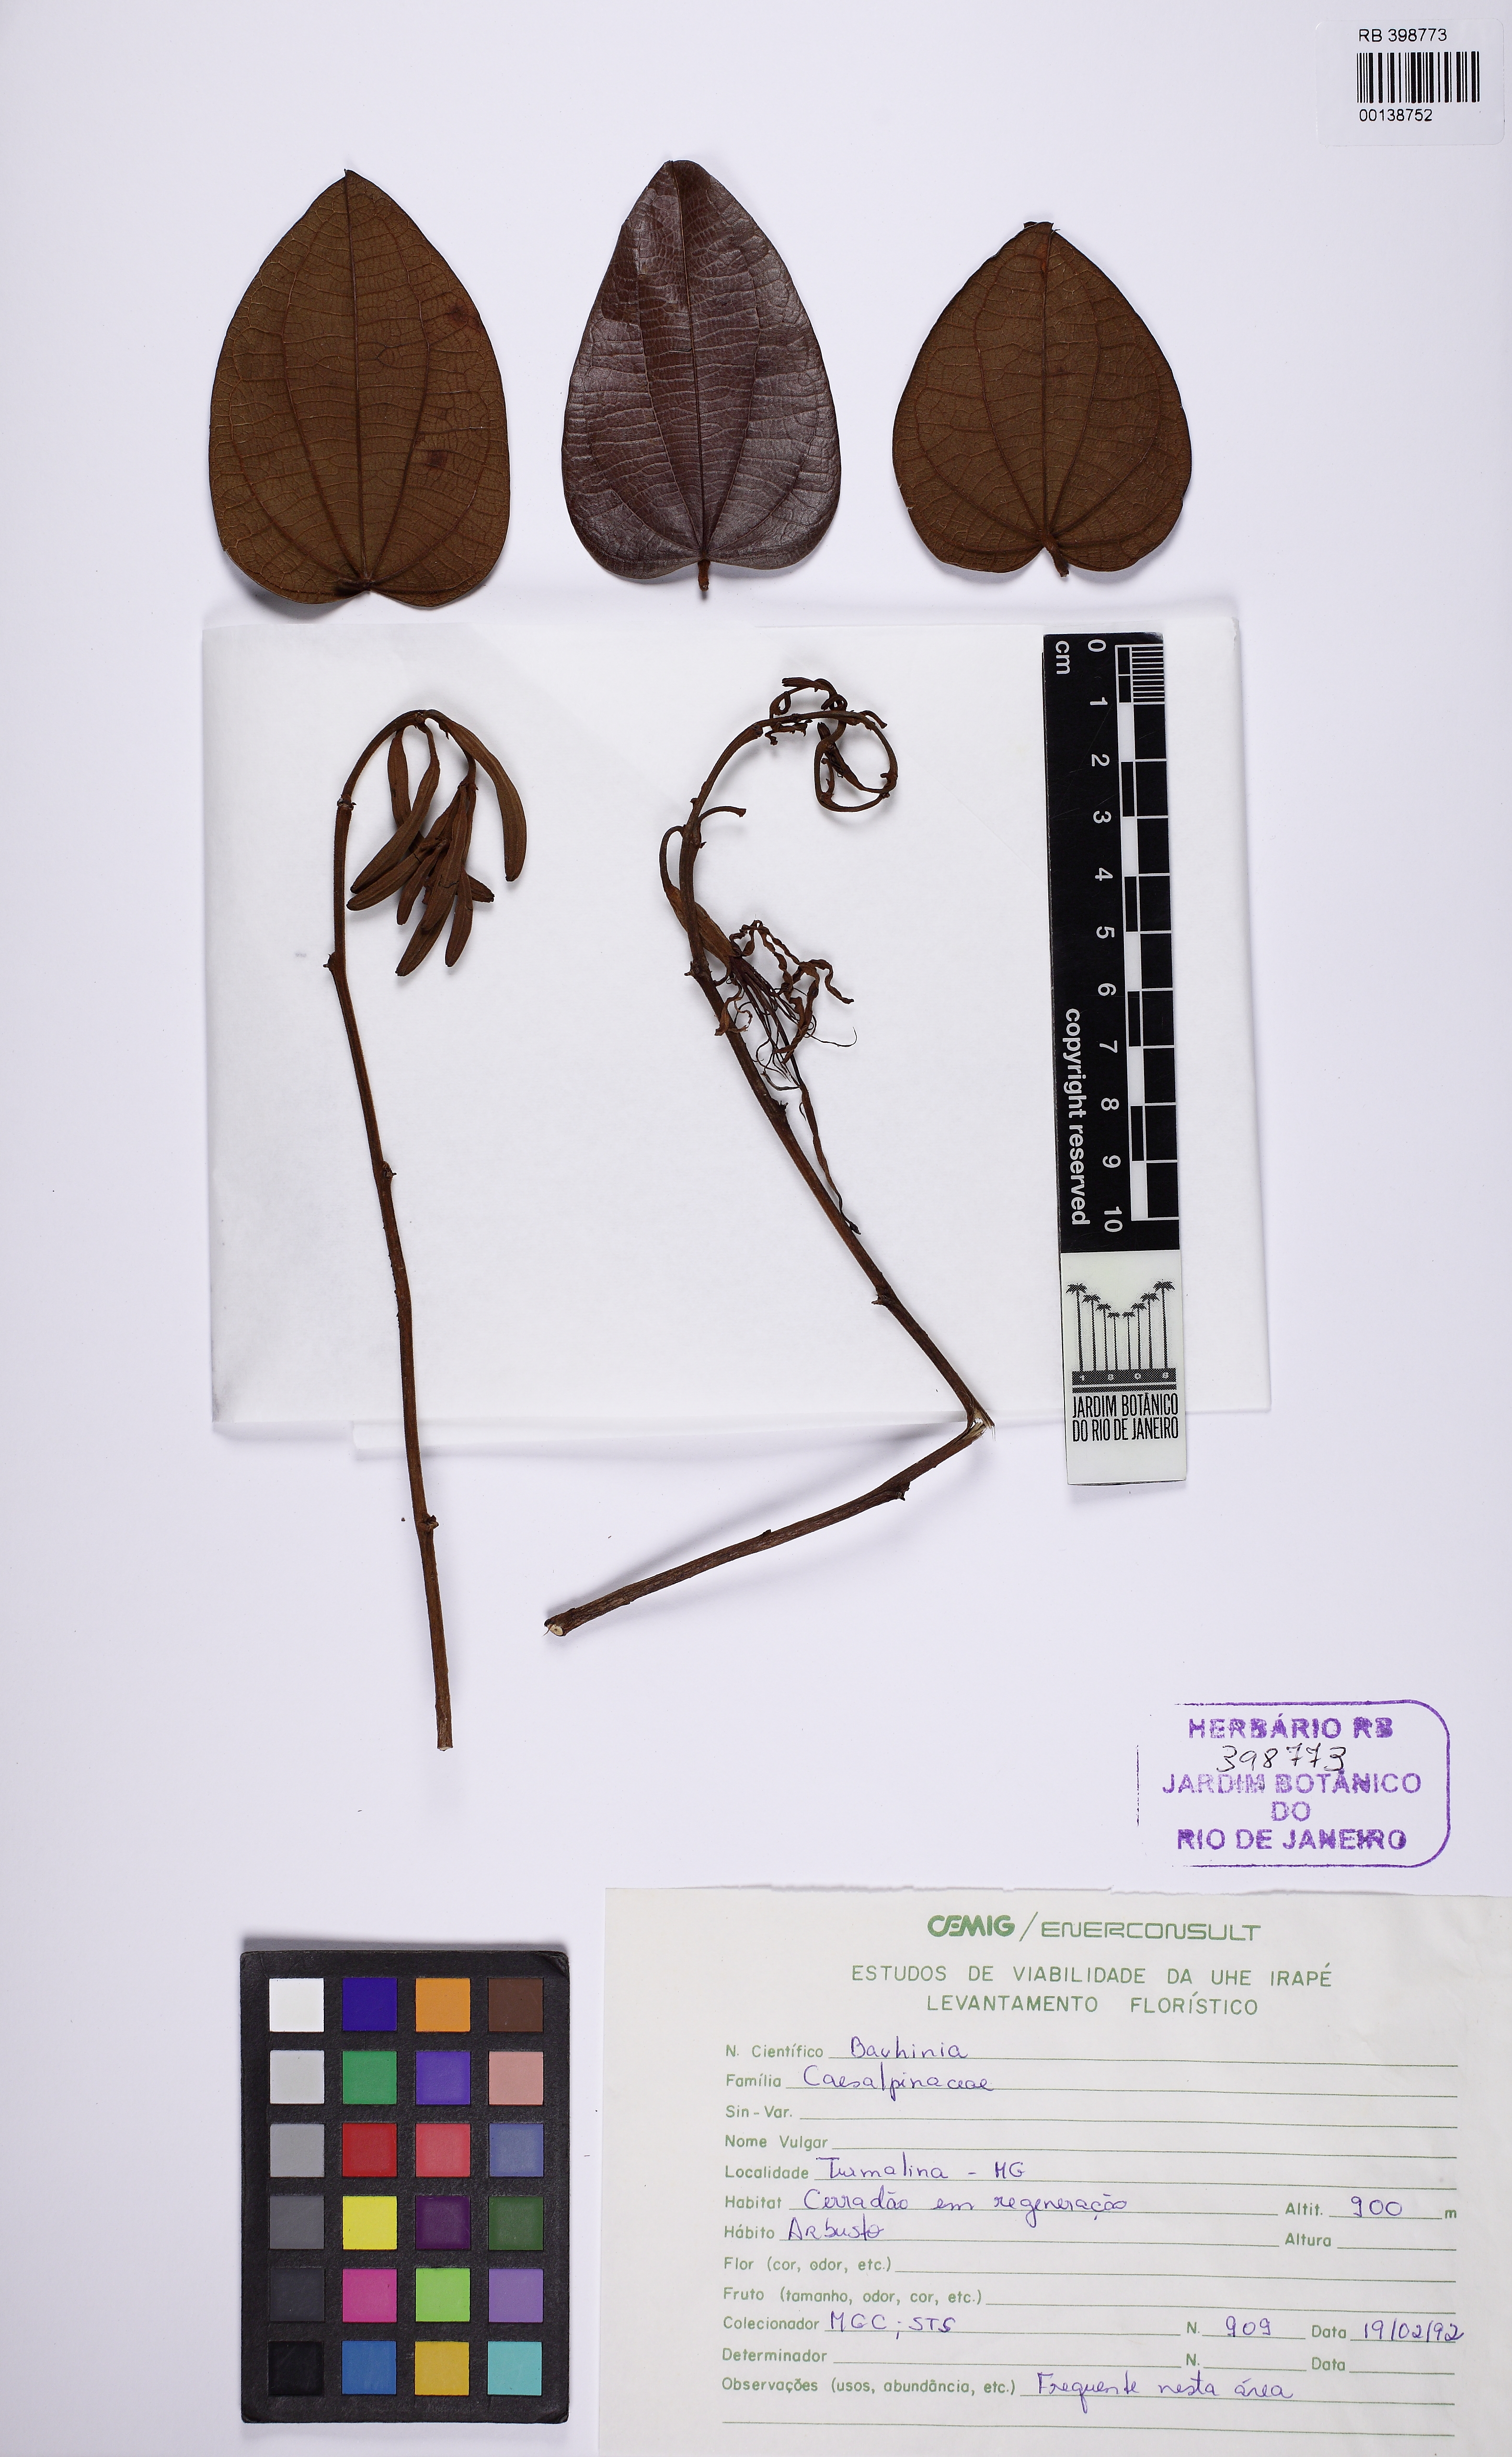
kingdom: Plantae
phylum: Tracheophyta
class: Magnoliopsida
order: Fabales
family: Fabaceae
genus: Bauhinia
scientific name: Bauhinia
